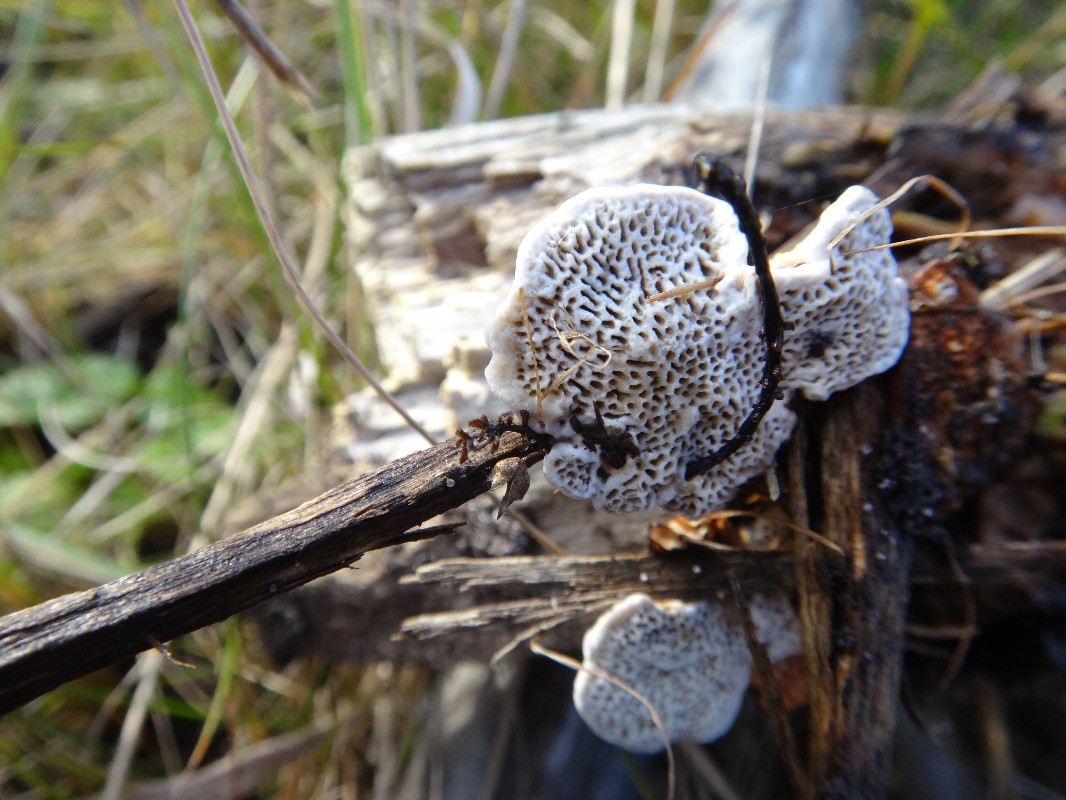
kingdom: Fungi
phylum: Basidiomycota
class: Agaricomycetes
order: Polyporales
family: Polyporaceae
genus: Daedaleopsis
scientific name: Daedaleopsis confragosa
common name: rødmende læderporesvamp
